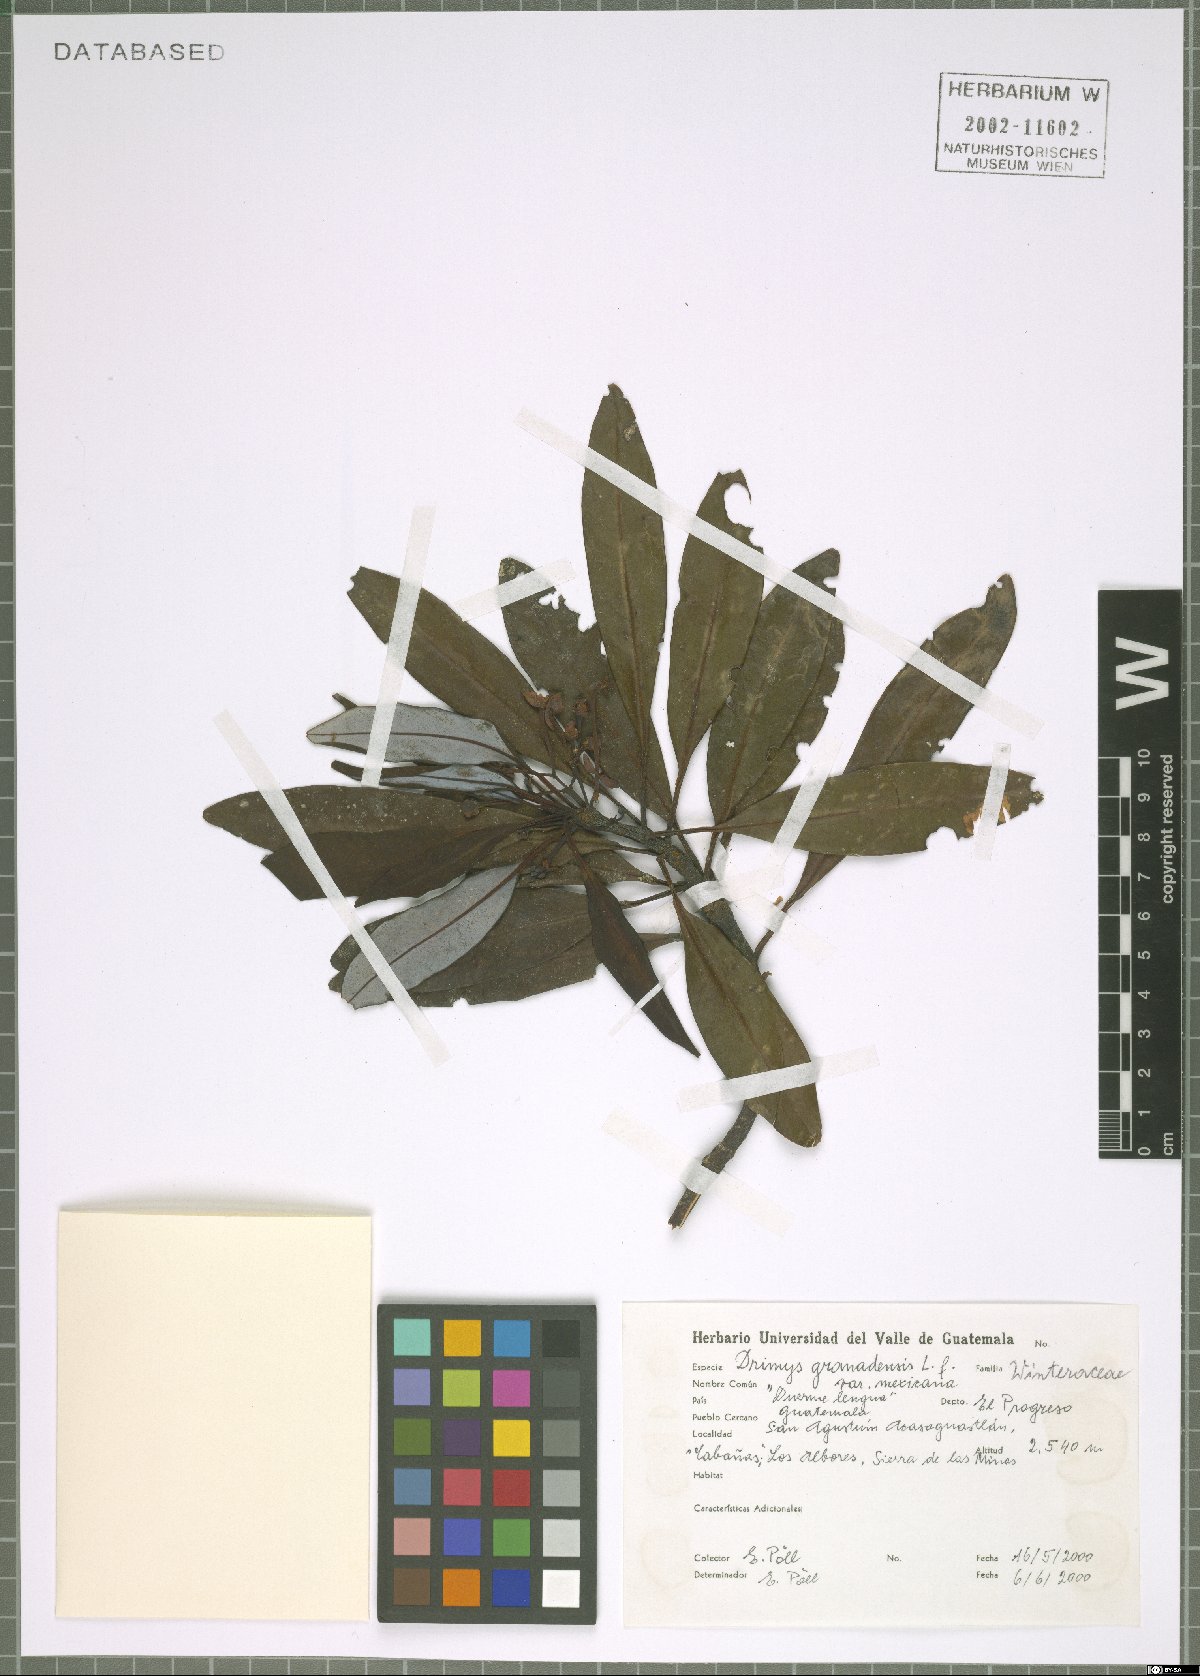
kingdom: Plantae
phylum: Tracheophyta
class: Magnoliopsida
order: Canellales
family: Winteraceae
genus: Drimys
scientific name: Drimys granadensis
